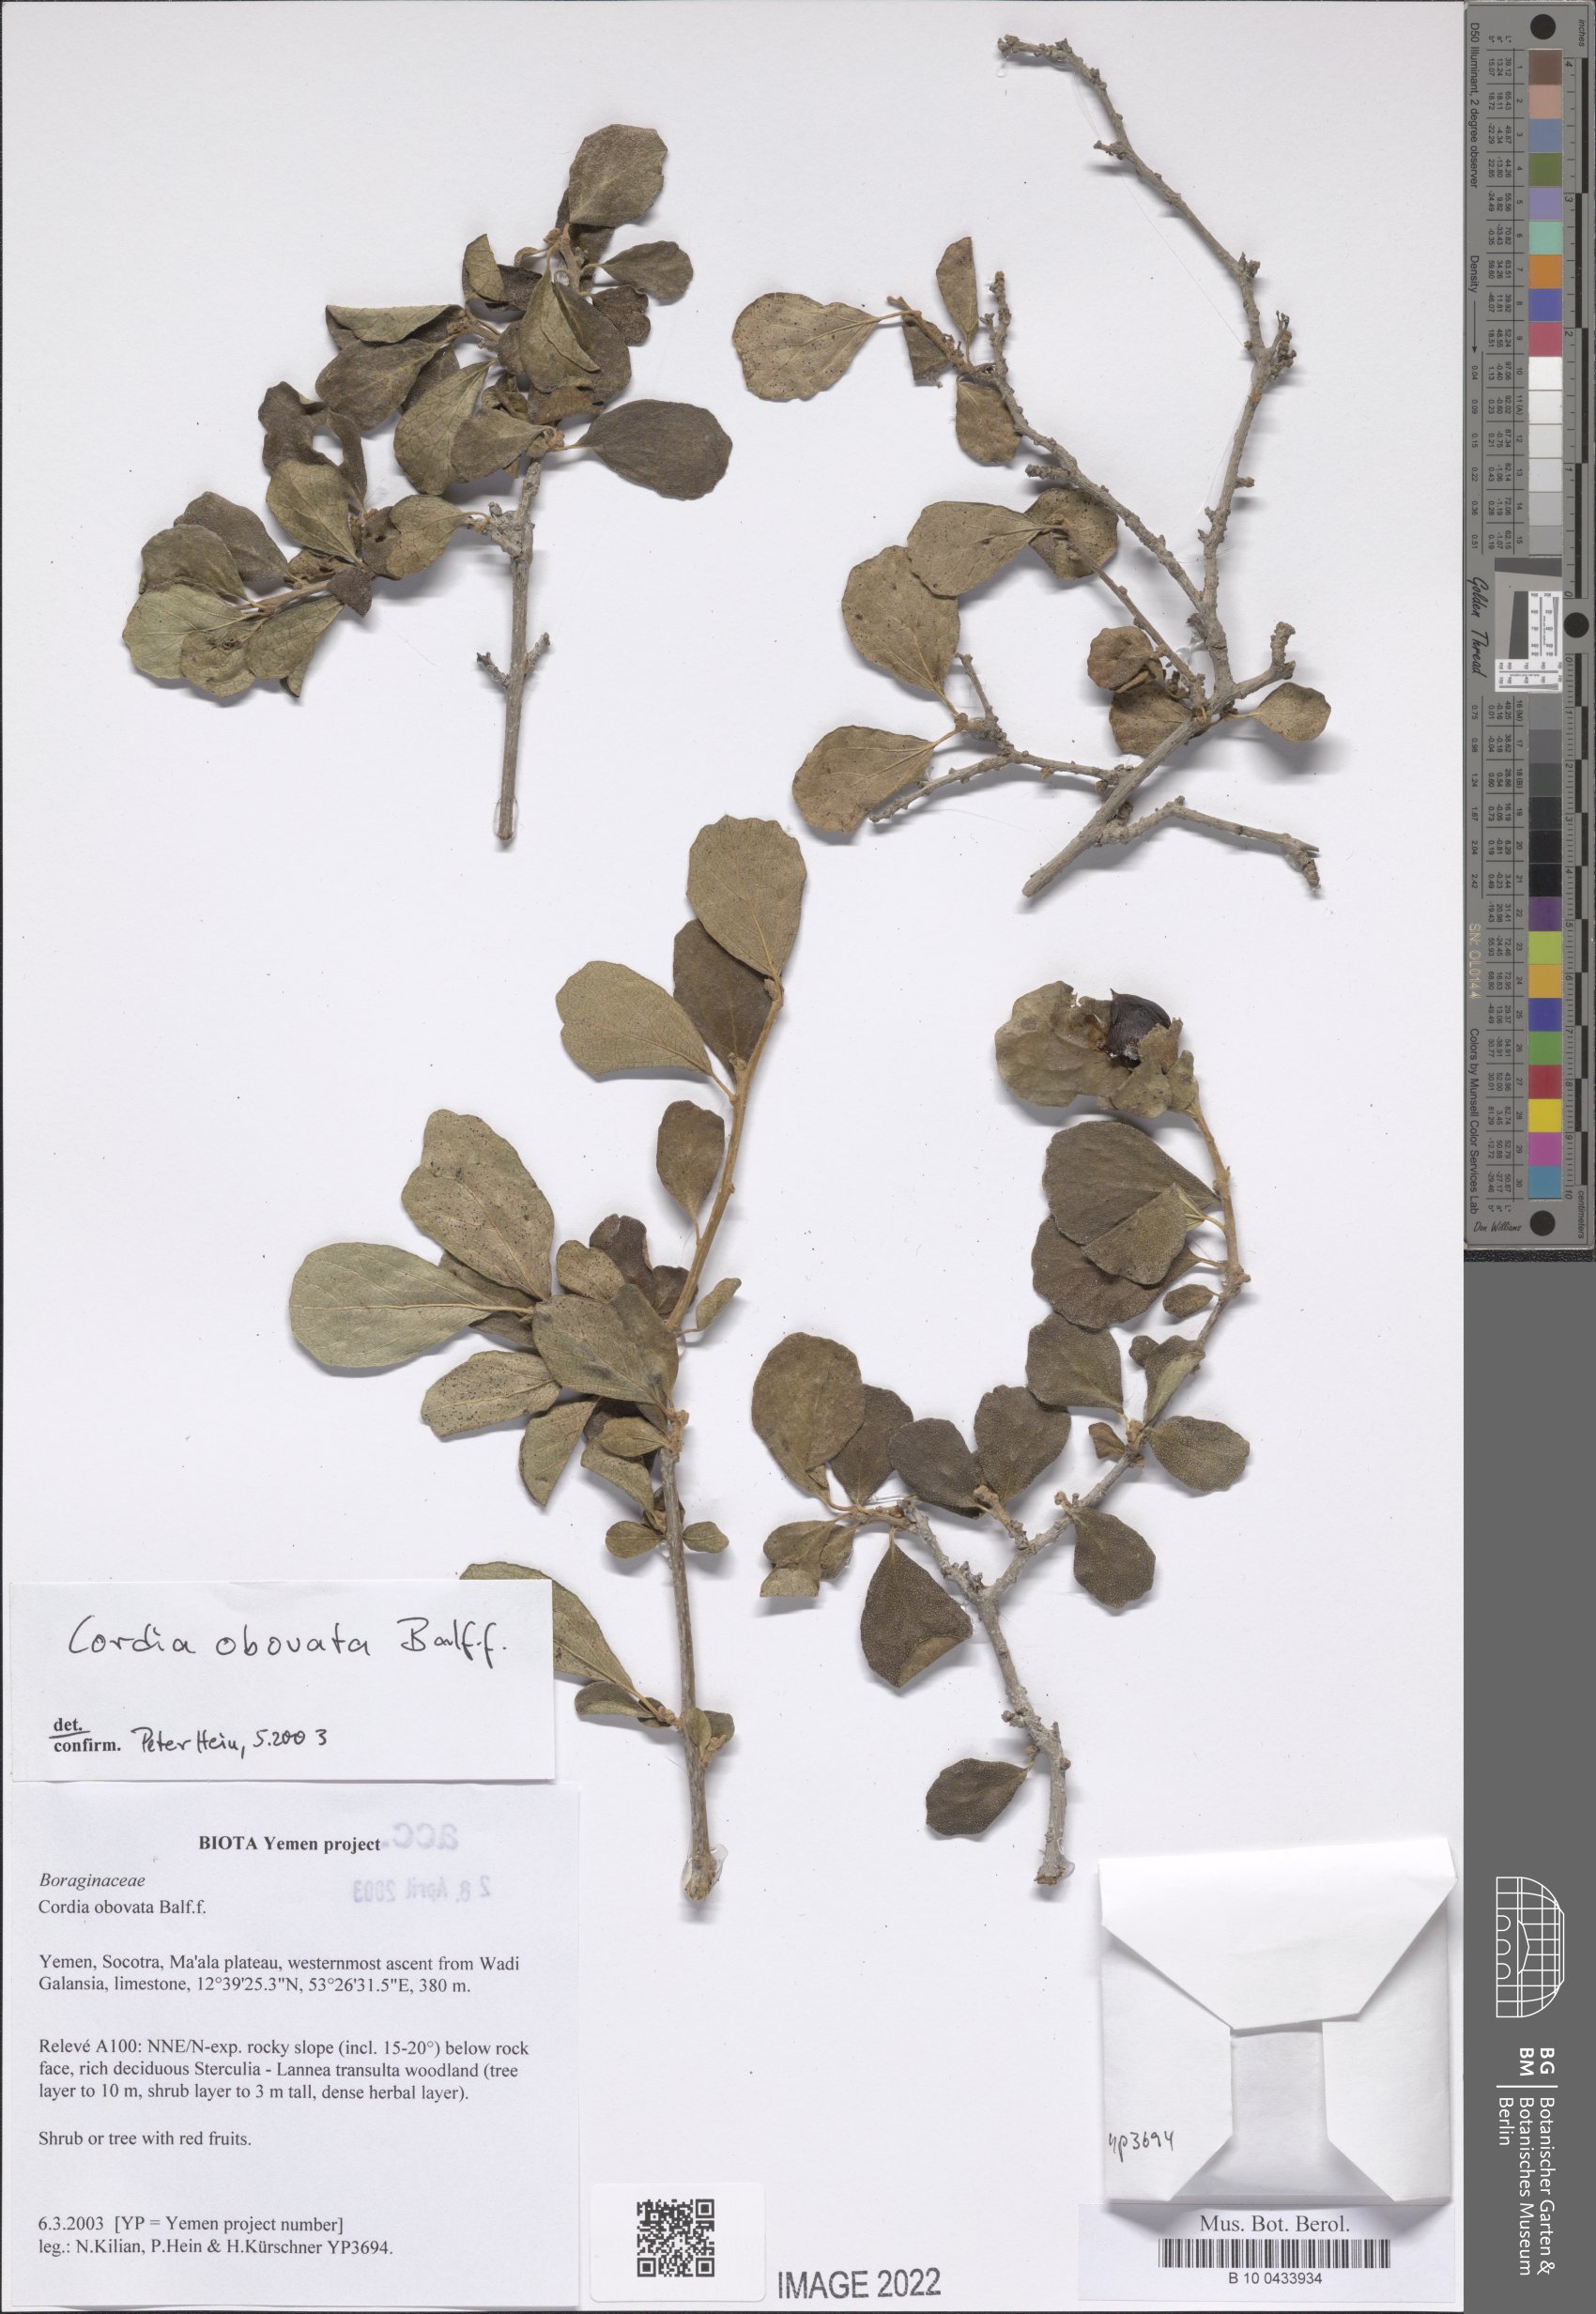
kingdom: Plantae
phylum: Tracheophyta
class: Magnoliopsida
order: Boraginales
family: Cordiaceae
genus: Cordia
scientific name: Cordia obovata
